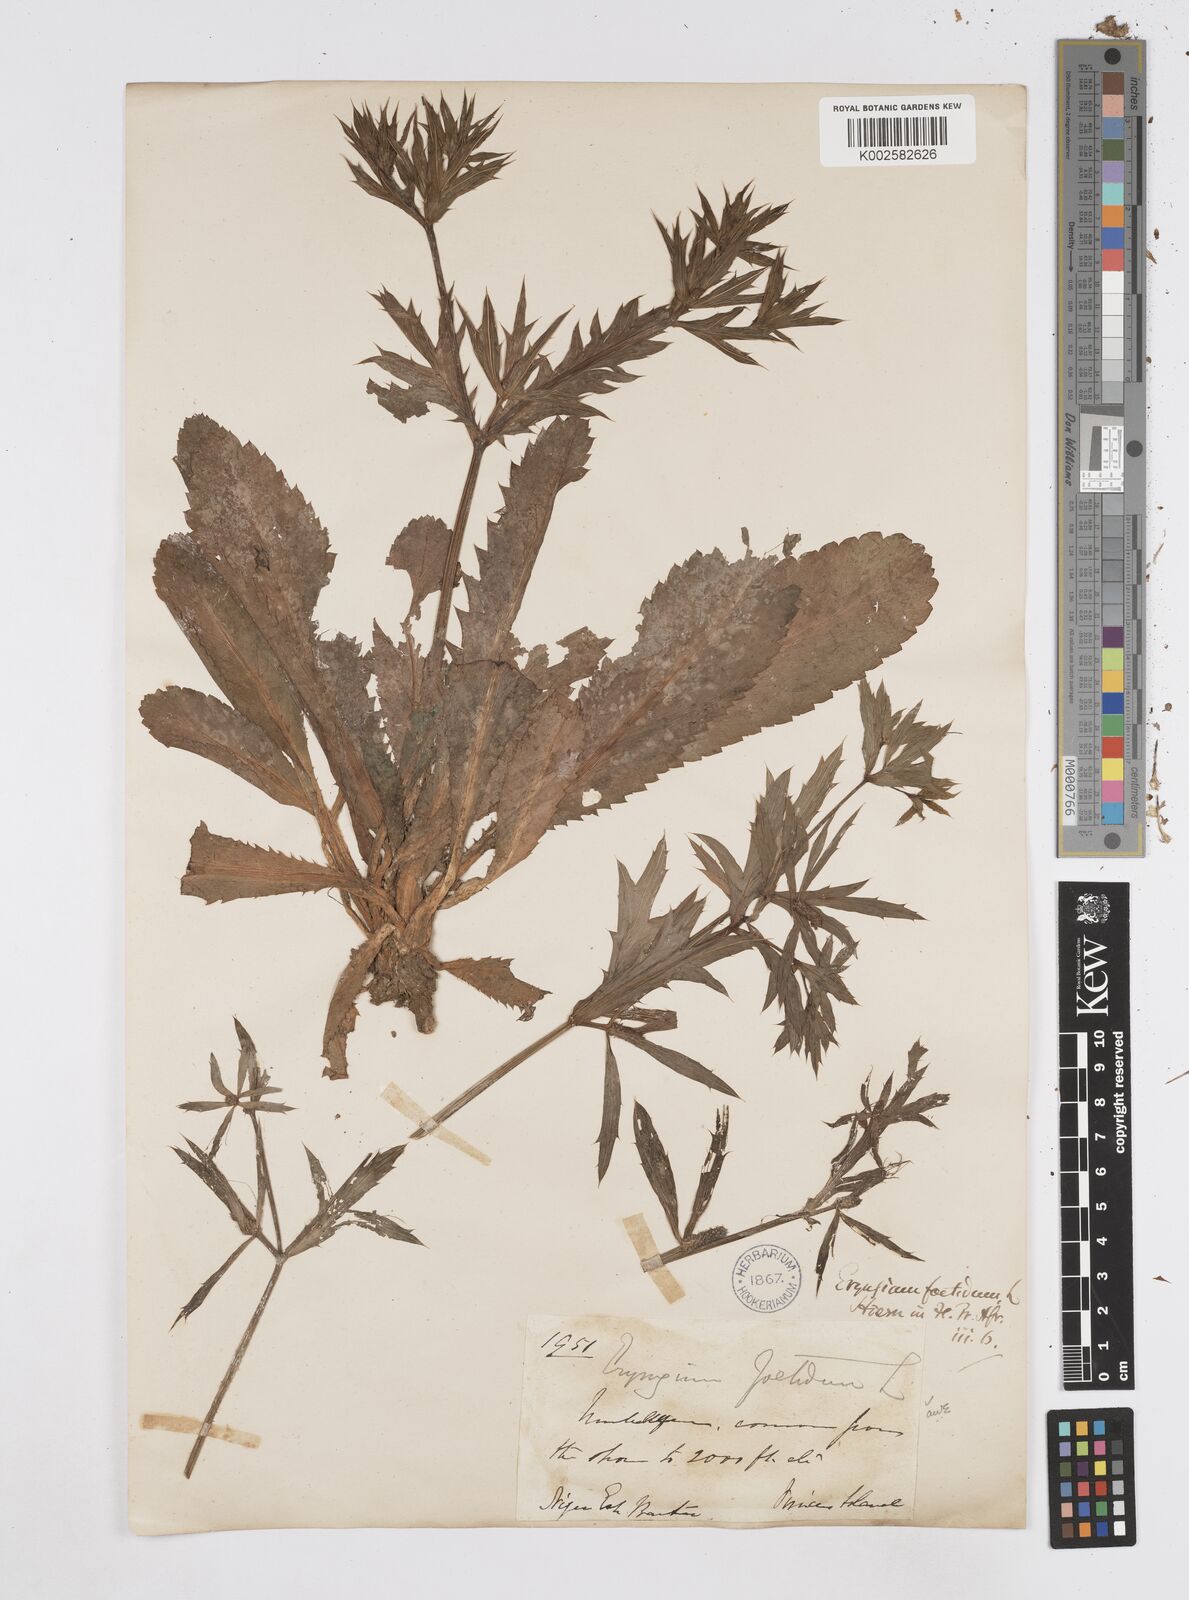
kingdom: Plantae
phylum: Tracheophyta
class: Magnoliopsida
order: Apiales
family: Apiaceae
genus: Eryngium
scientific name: Eryngium foetidum
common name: Fitweed
